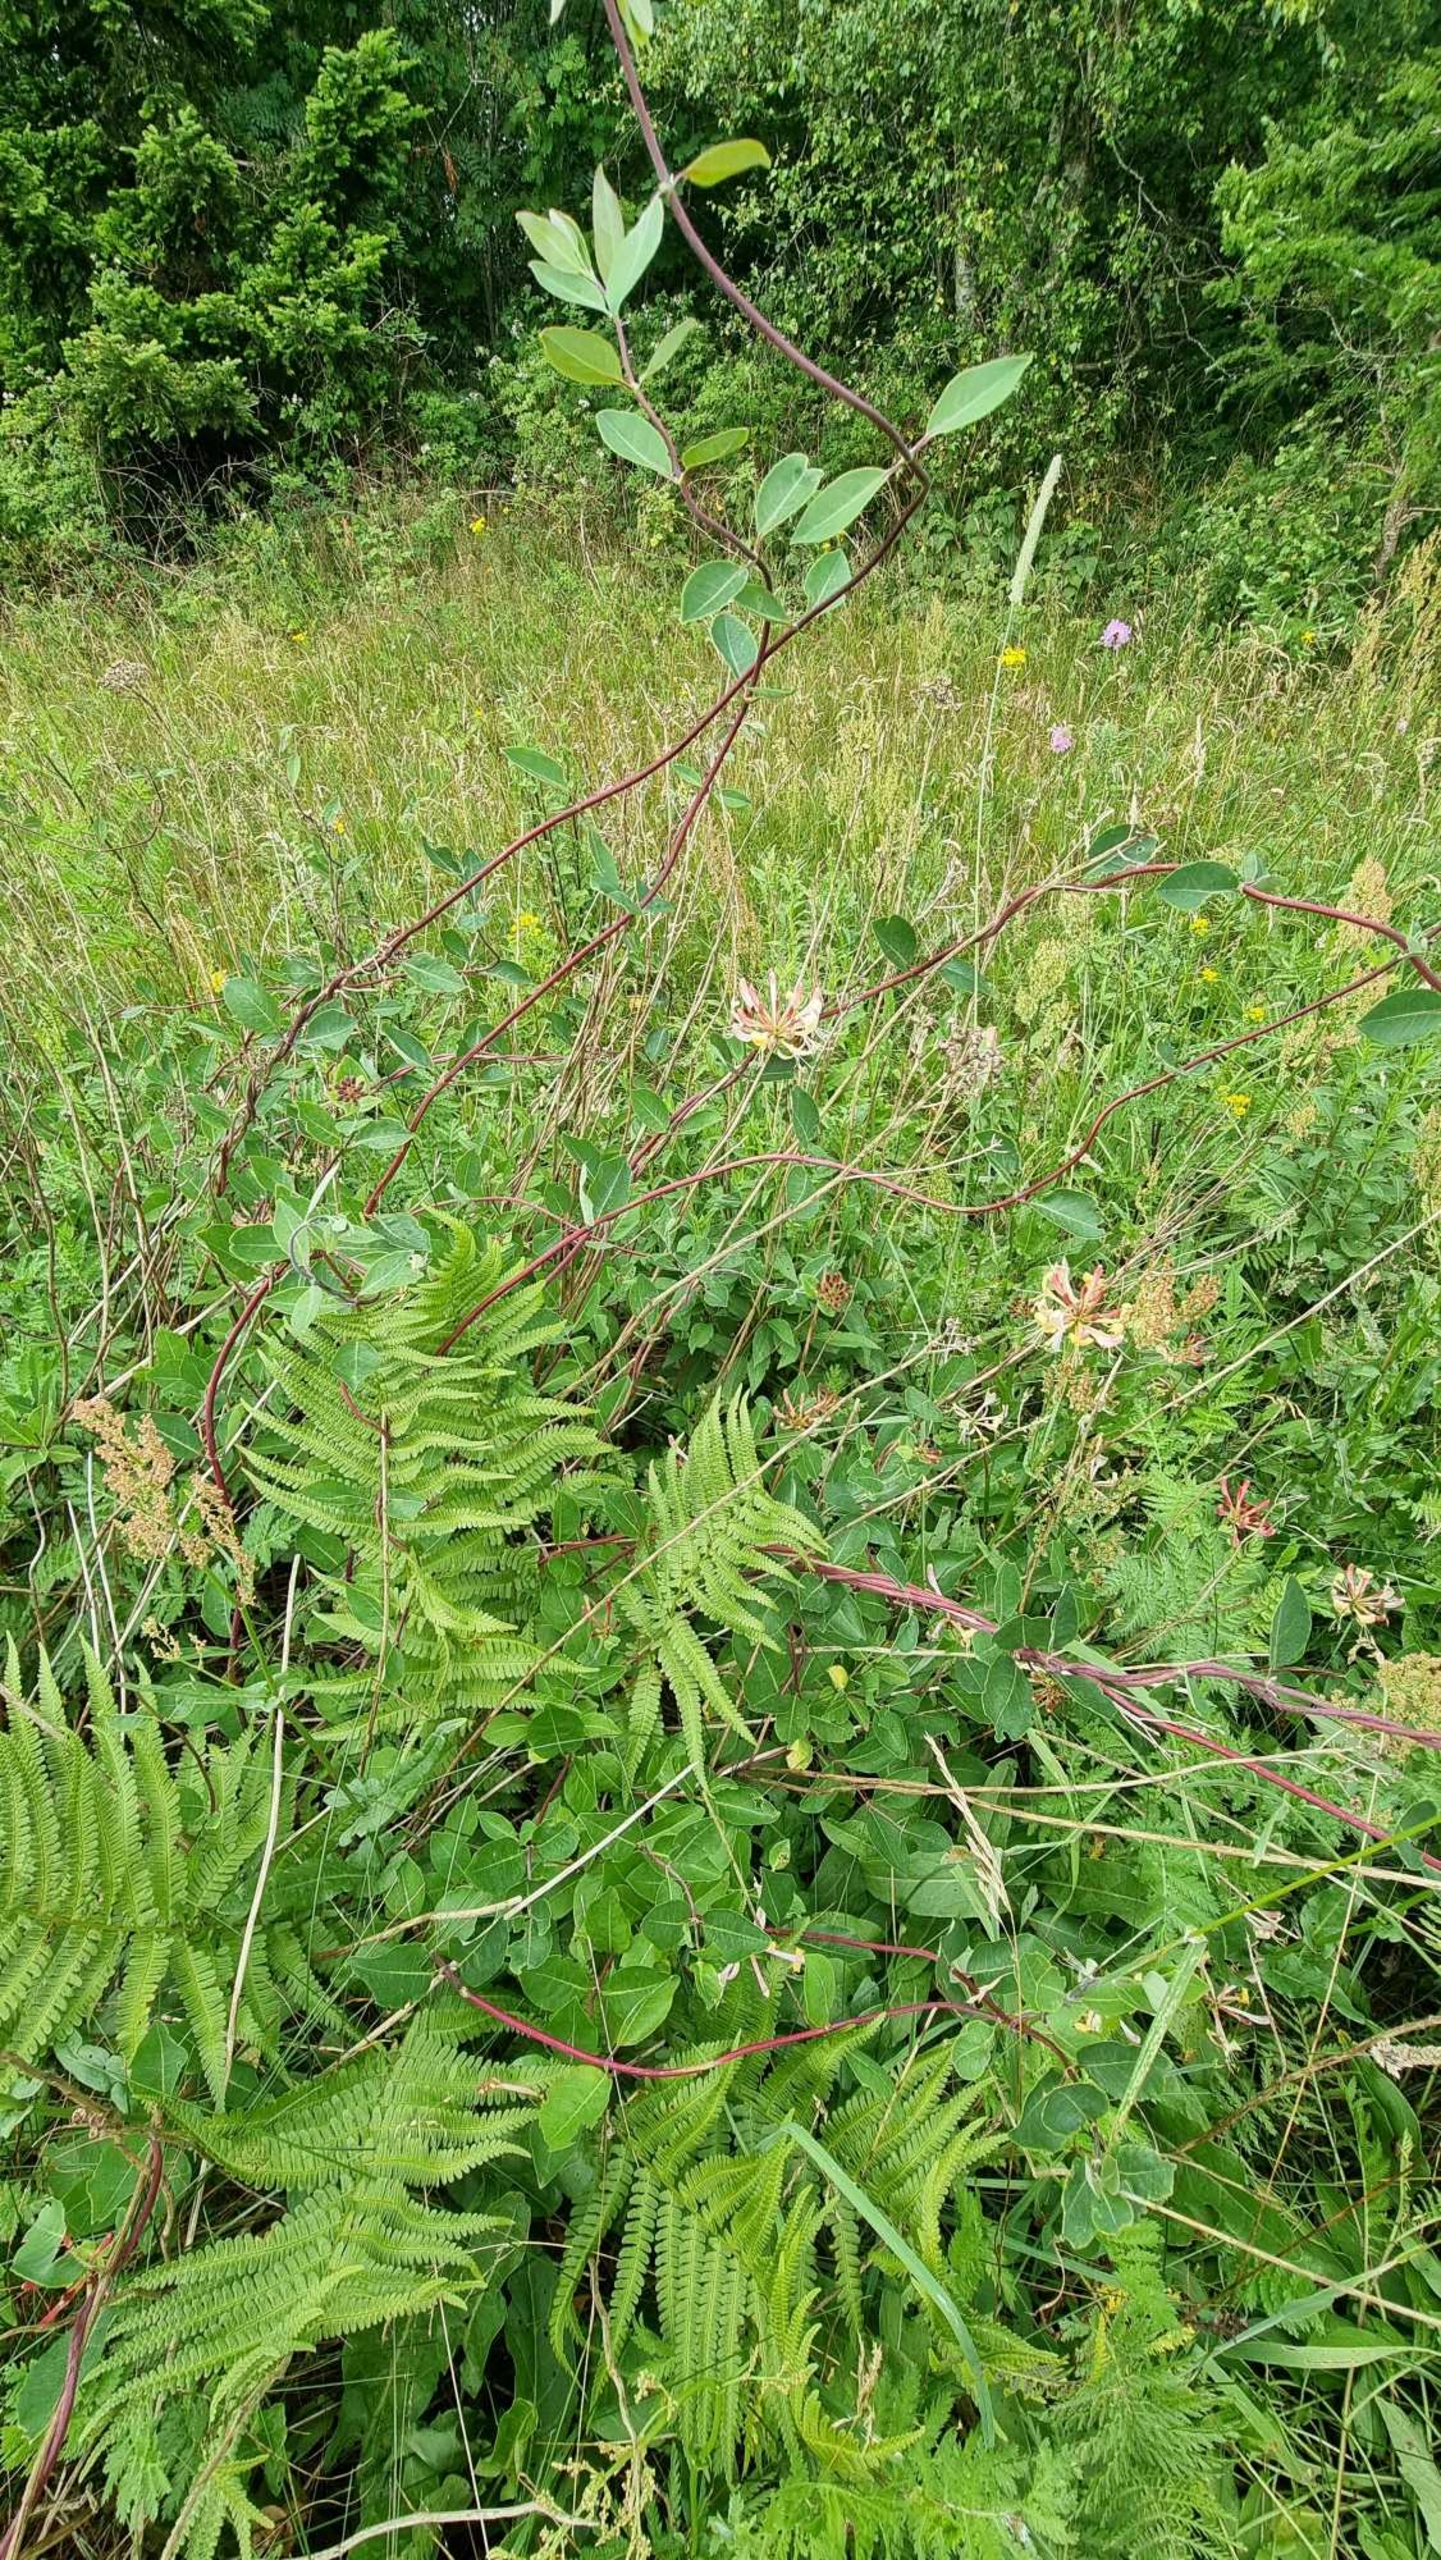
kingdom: Plantae
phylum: Tracheophyta
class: Magnoliopsida
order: Dipsacales
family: Caprifoliaceae
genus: Lonicera
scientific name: Lonicera periclymenum
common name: Almindelig gedeblad
